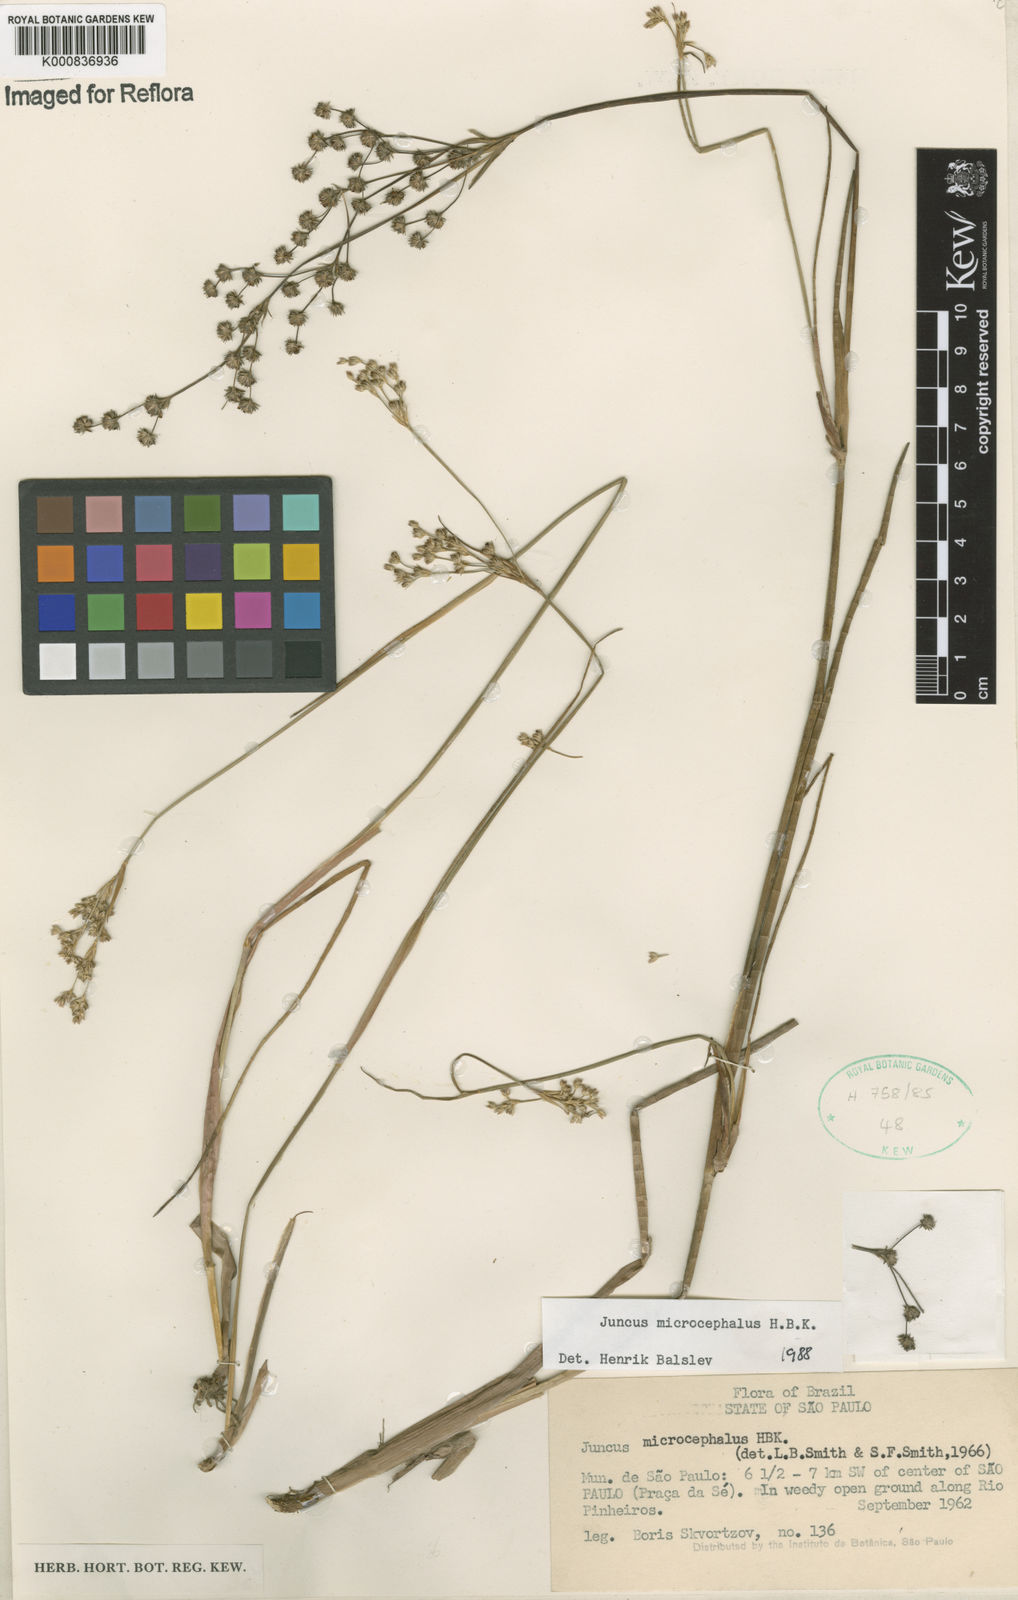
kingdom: Plantae
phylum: Tracheophyta
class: Liliopsida
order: Poales
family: Juncaceae
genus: Juncus
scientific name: Juncus microcephalus
